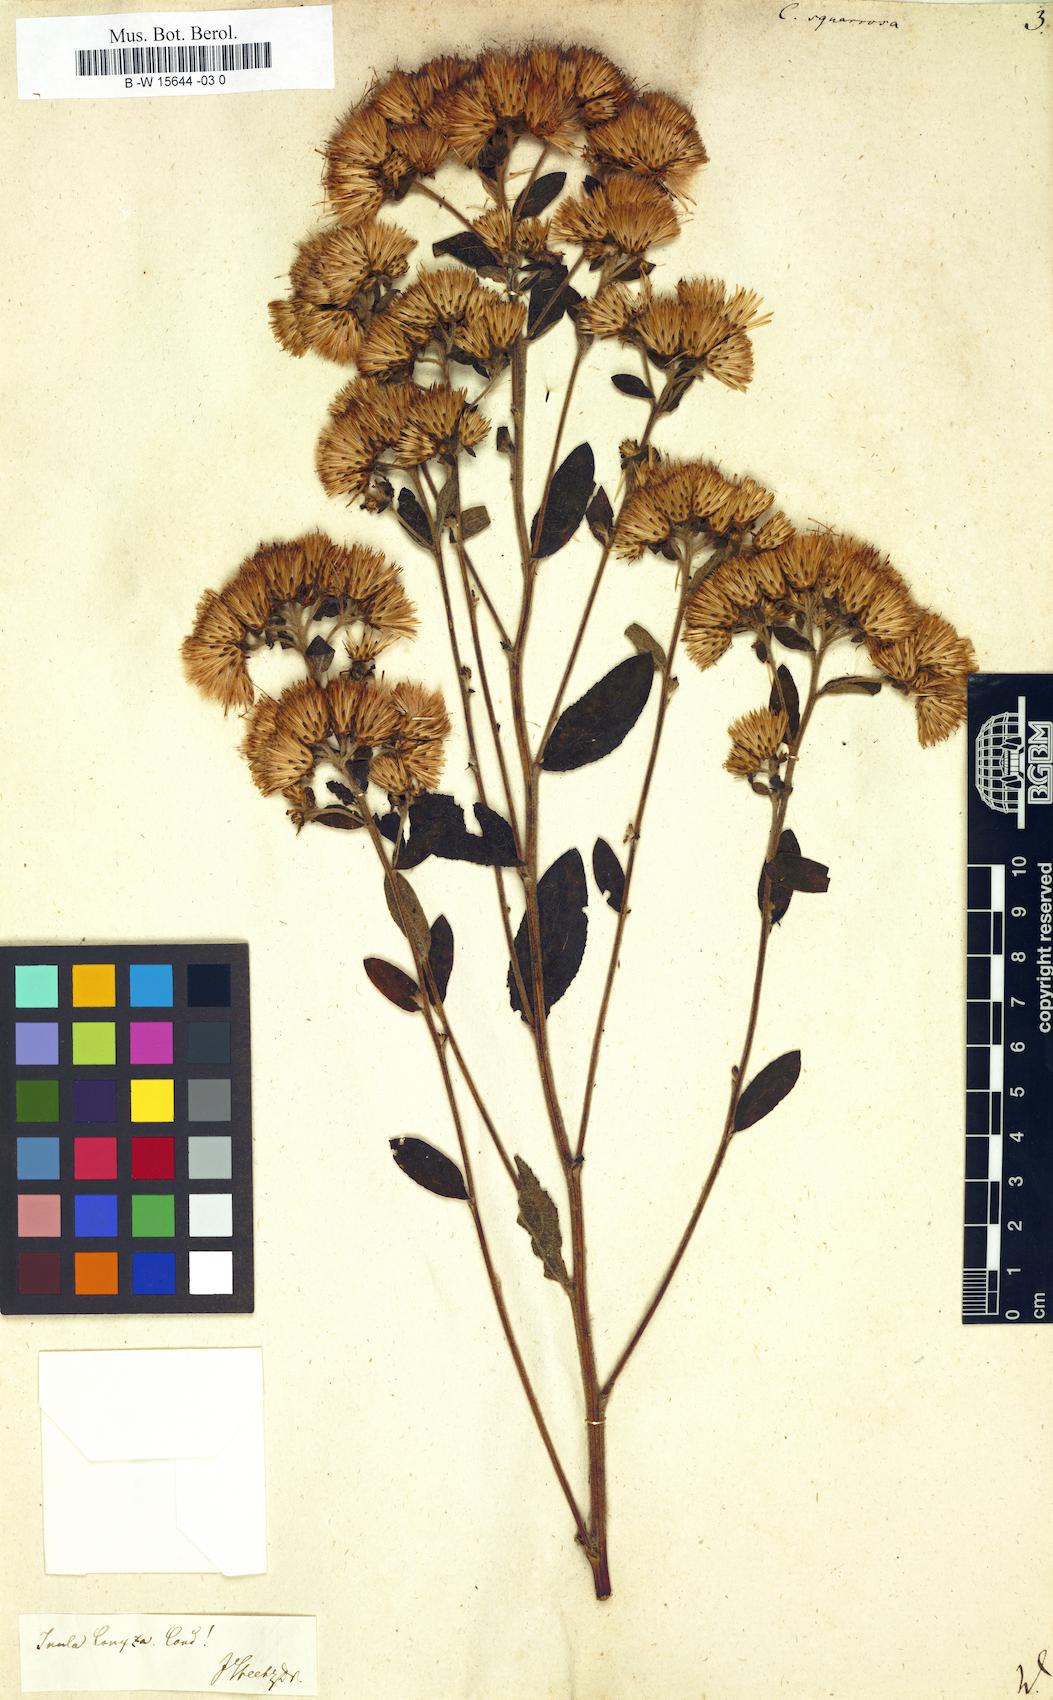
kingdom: Plantae
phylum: Tracheophyta
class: Magnoliopsida
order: Asterales
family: Asteraceae
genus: Conyza
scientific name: Conyza squarrosa
